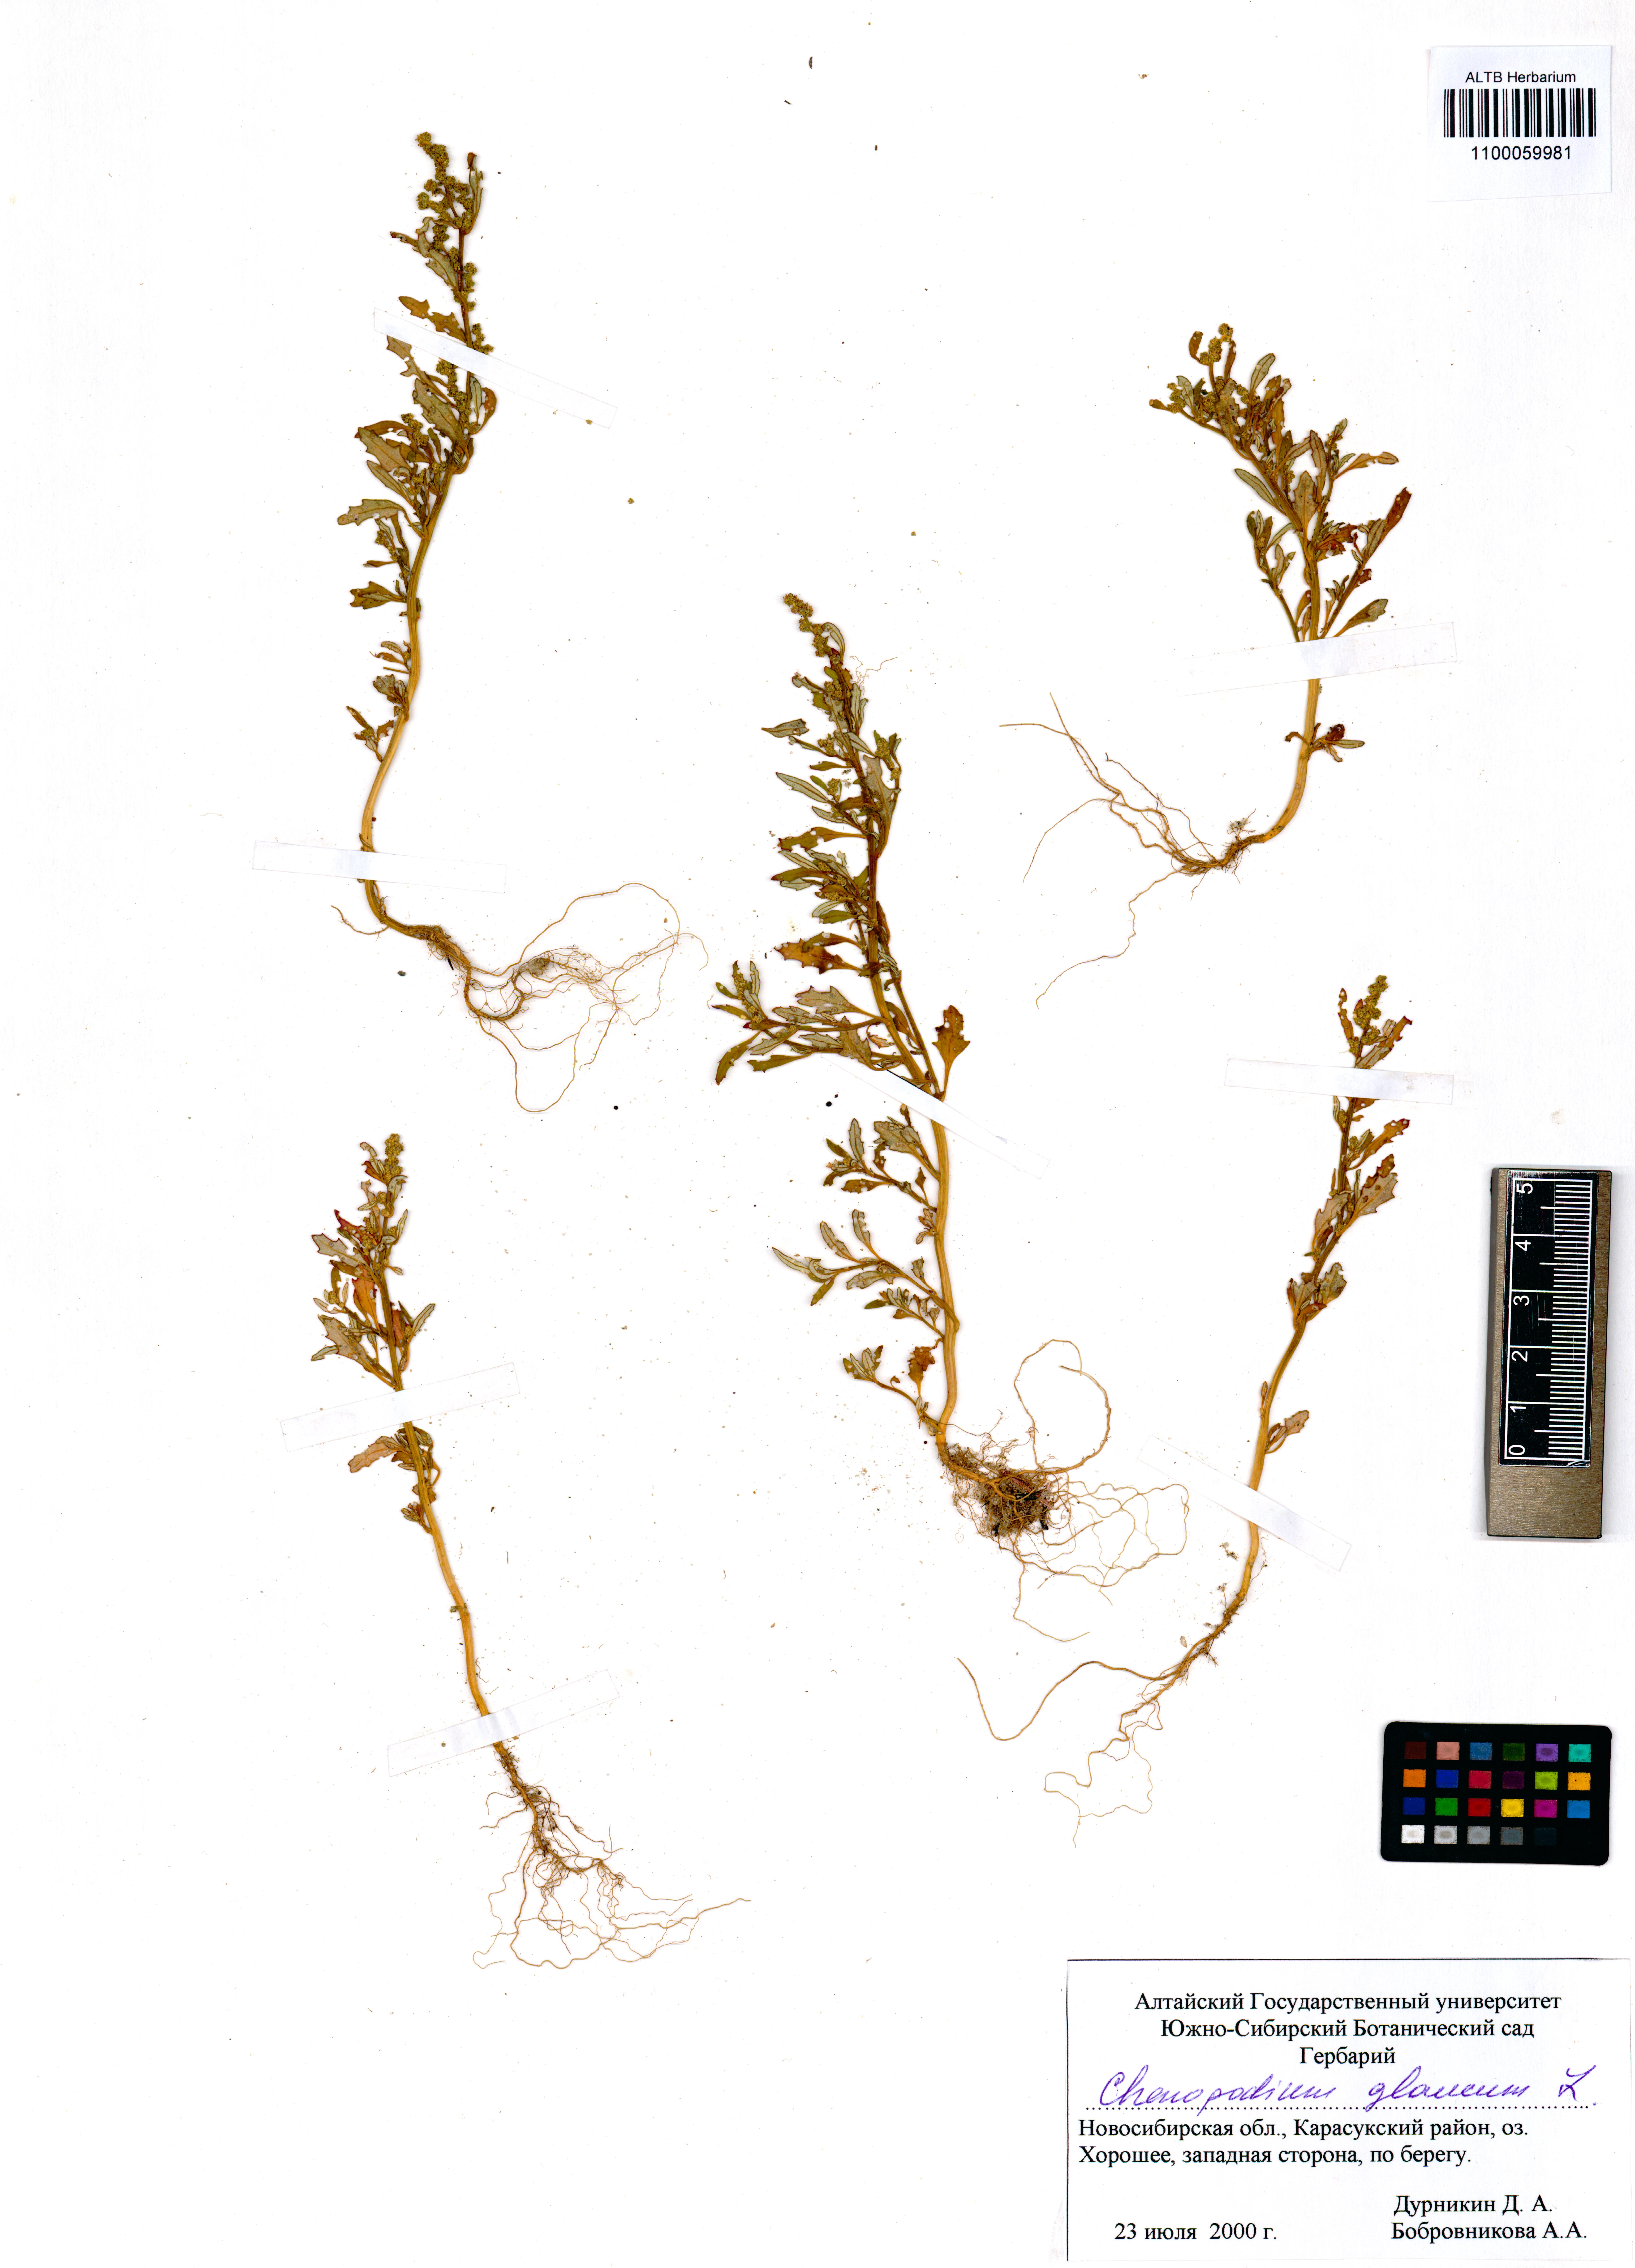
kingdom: Plantae
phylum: Tracheophyta
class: Magnoliopsida
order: Boraginales
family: Boraginaceae
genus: Myosotis
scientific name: Myosotis laxa
